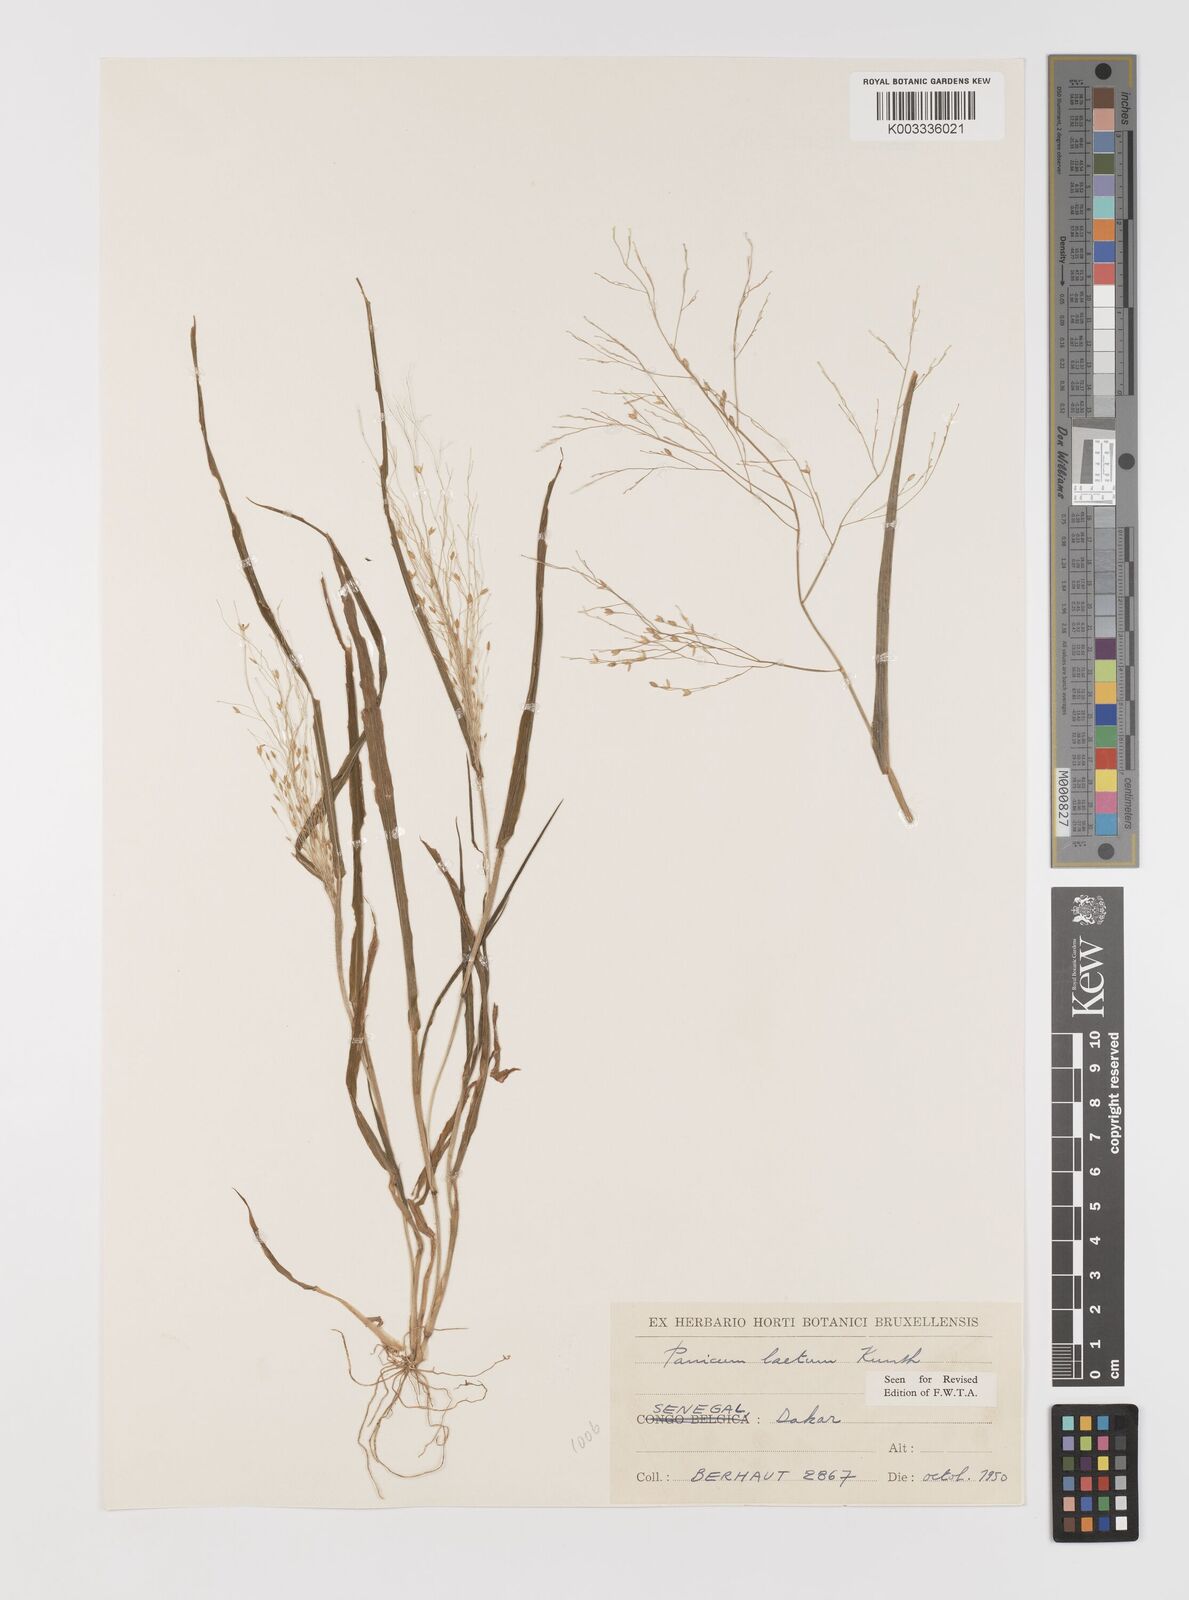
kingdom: Plantae
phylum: Tracheophyta
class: Liliopsida
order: Poales
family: Poaceae
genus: Panicum
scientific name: Panicum laetum
